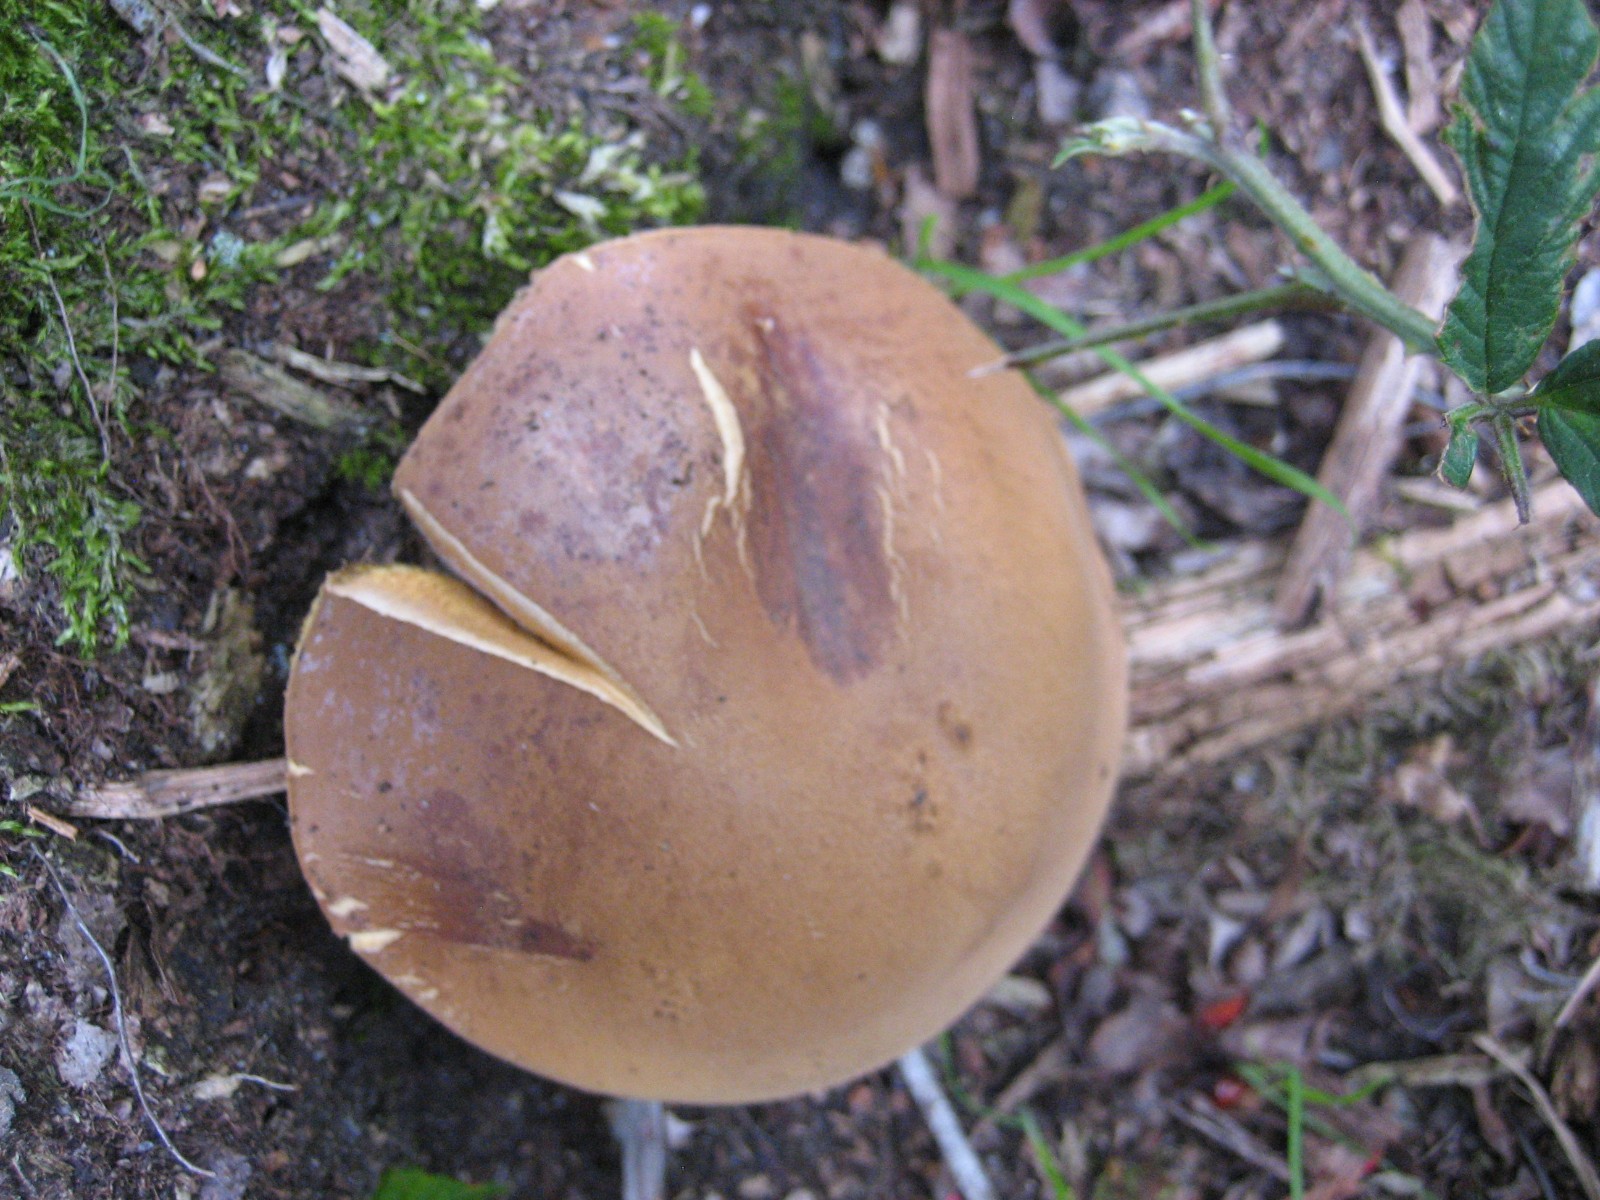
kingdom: Fungi
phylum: Basidiomycota
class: Agaricomycetes
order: Boletales
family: Boletaceae
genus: Imleria
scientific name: Imleria badia
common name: brunstokket rørhat
